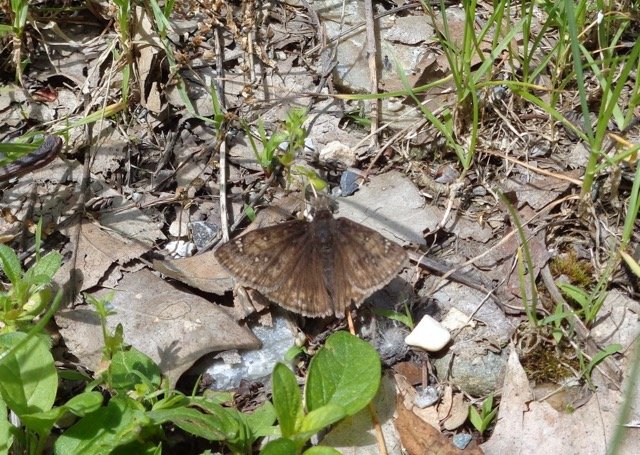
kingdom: Animalia
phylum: Arthropoda
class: Insecta
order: Lepidoptera
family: Hesperiidae
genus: Gesta
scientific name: Gesta
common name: Juvenal's Duskywing
